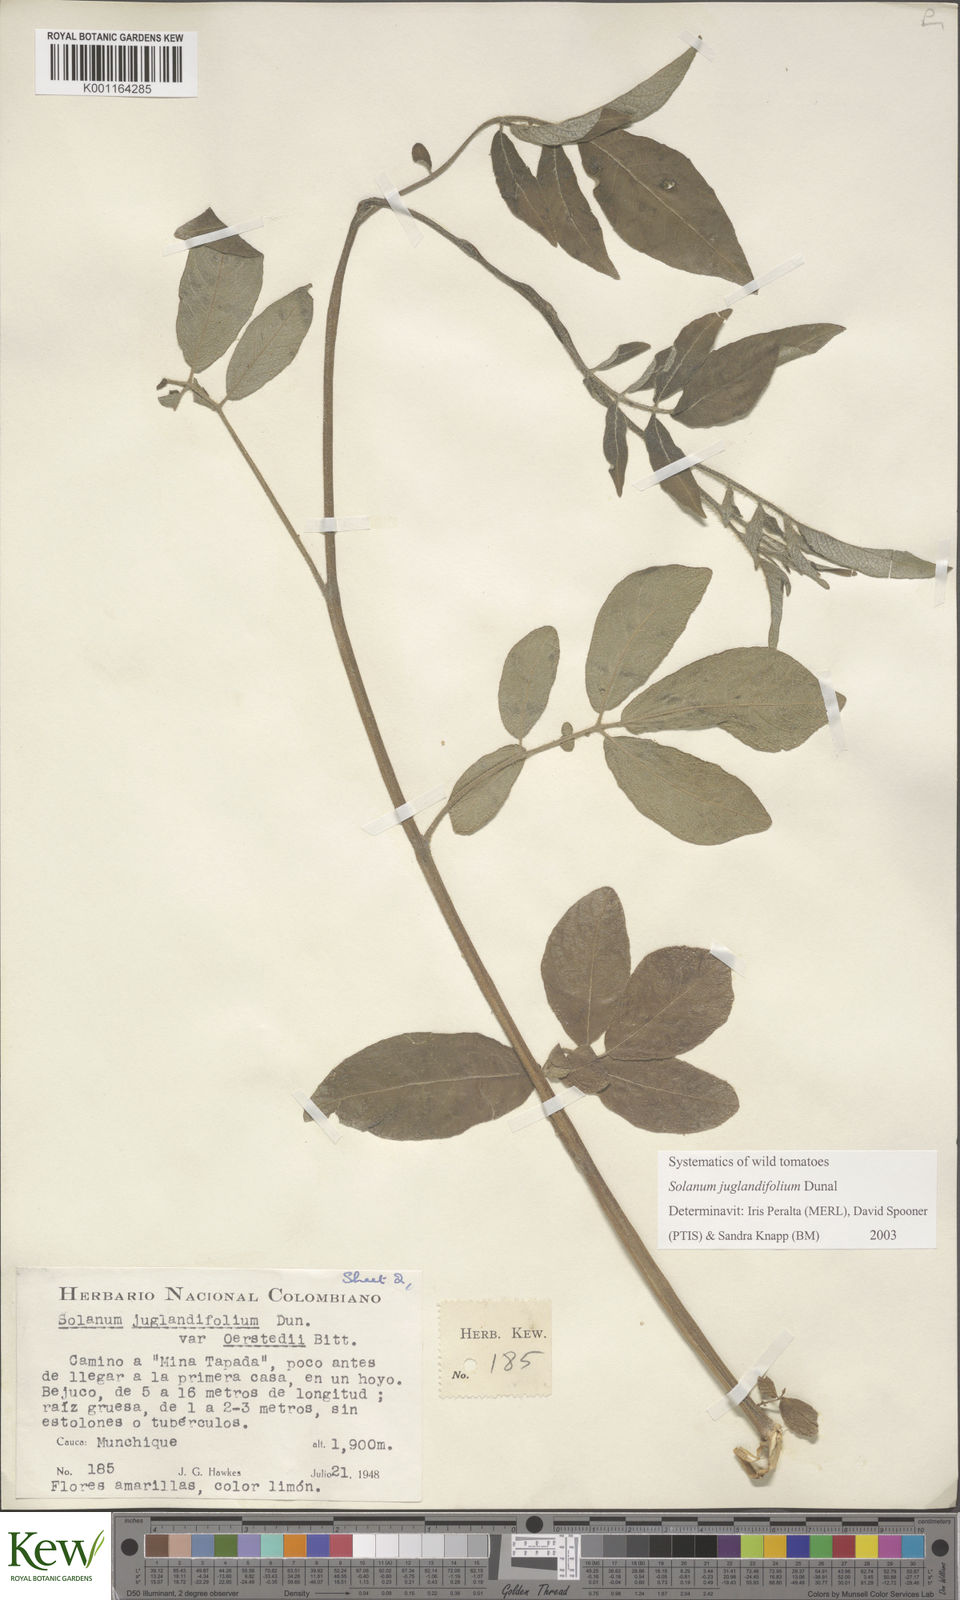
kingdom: Plantae
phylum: Tracheophyta
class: Magnoliopsida
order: Solanales
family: Solanaceae
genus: Solanum
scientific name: Solanum juglandifolium
